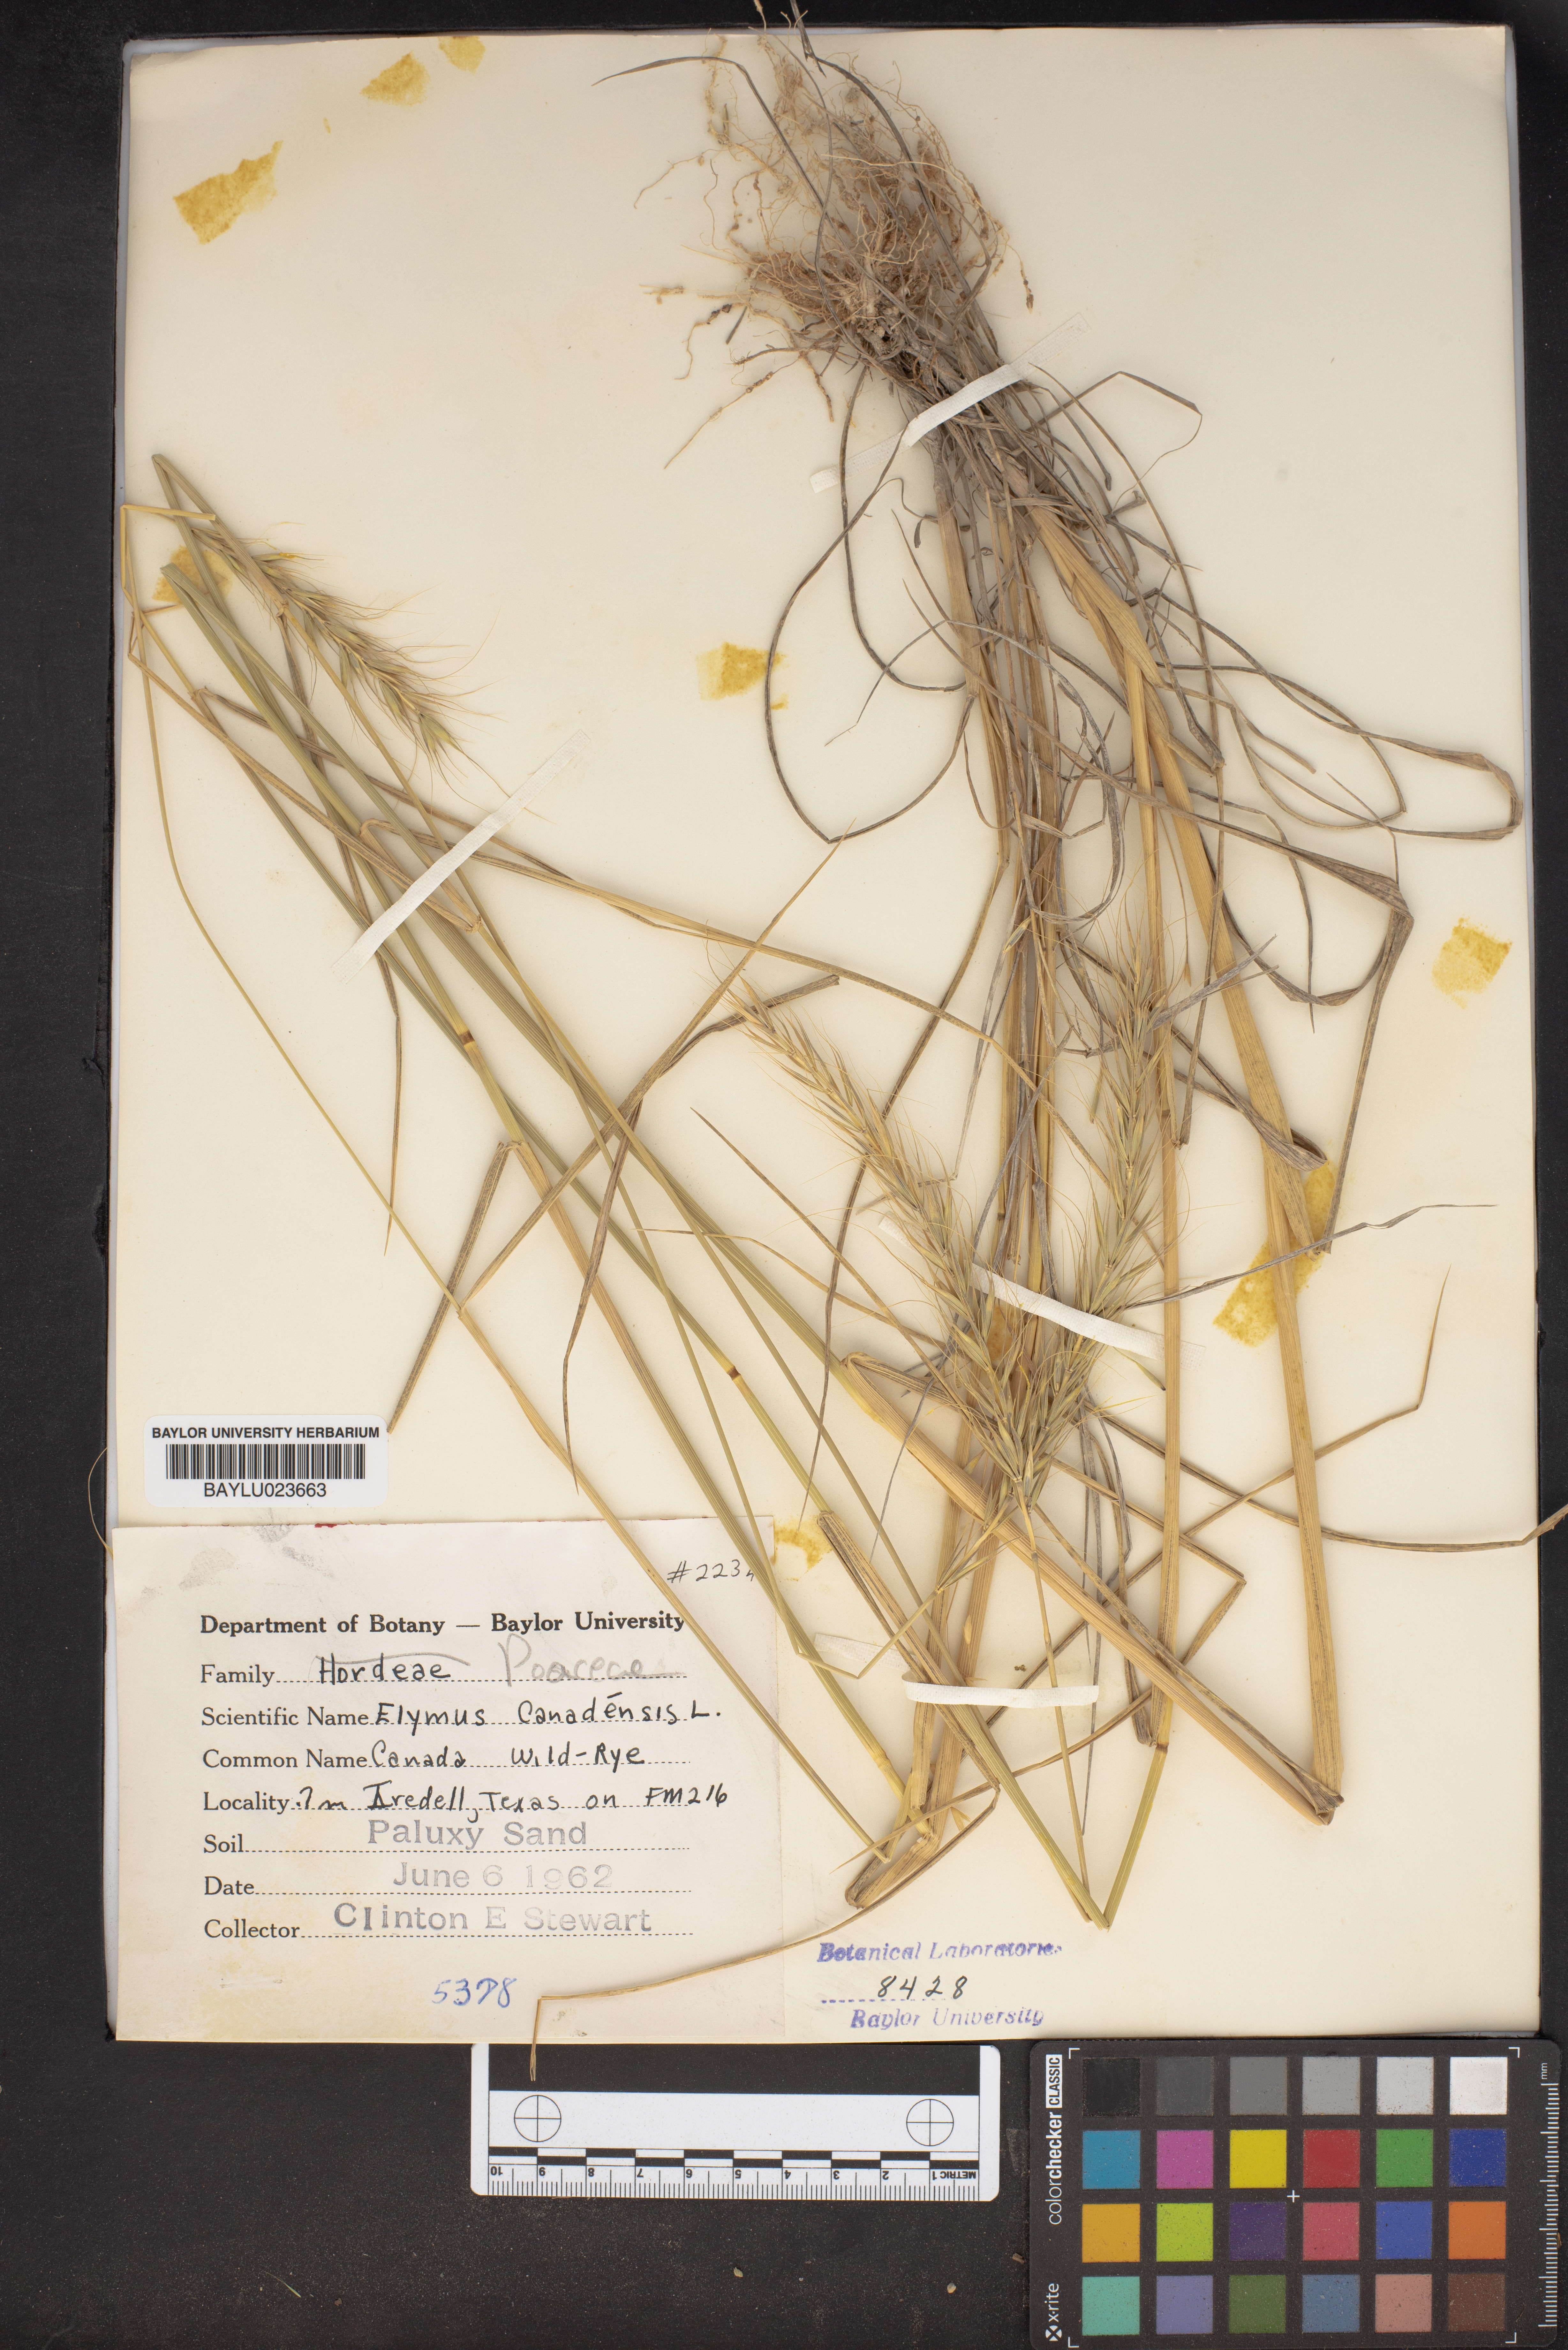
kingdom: Plantae
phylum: Tracheophyta
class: Liliopsida
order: Poales
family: Poaceae
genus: Elymus
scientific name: Elymus canadensis
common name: Canada wild rye
